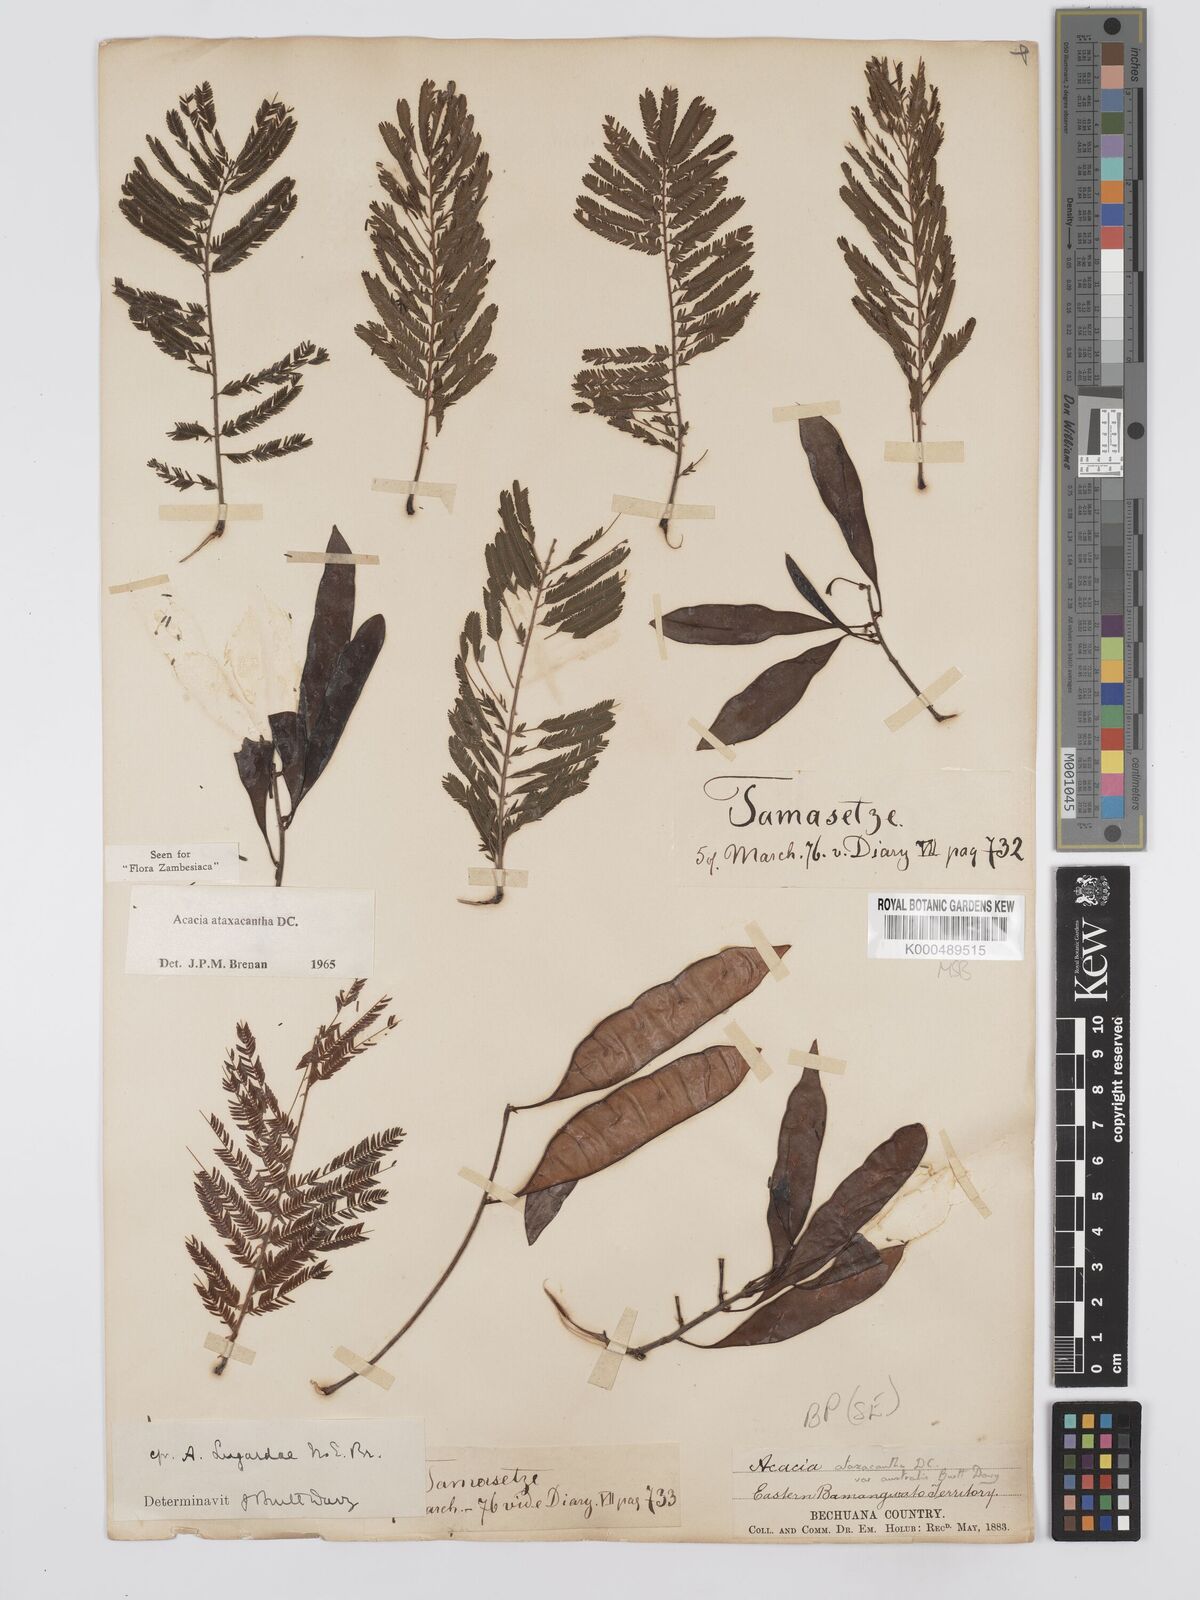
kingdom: Plantae
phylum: Tracheophyta
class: Magnoliopsida
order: Fabales
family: Fabaceae
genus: Senegalia
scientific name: Senegalia ataxacantha
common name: Flame acacia
